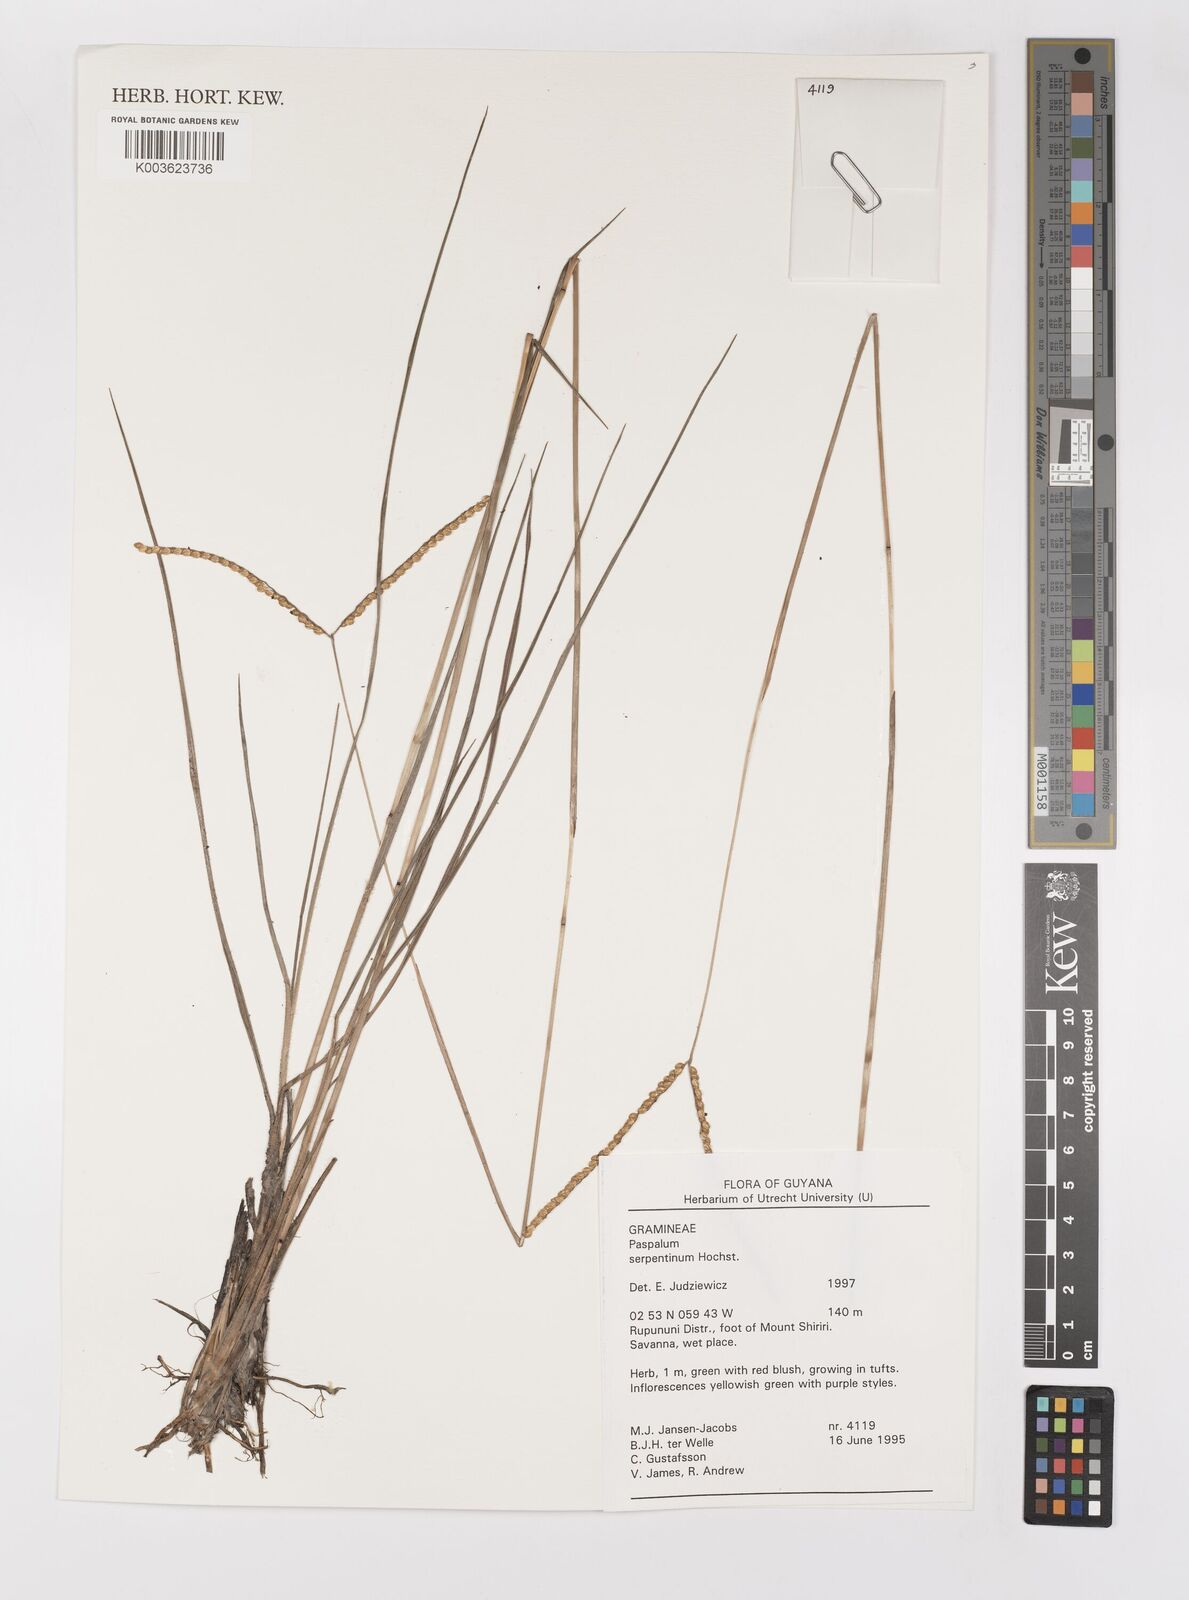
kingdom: Plantae
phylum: Tracheophyta
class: Liliopsida
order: Poales
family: Poaceae
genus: Paspalum
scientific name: Paspalum serpentinum
